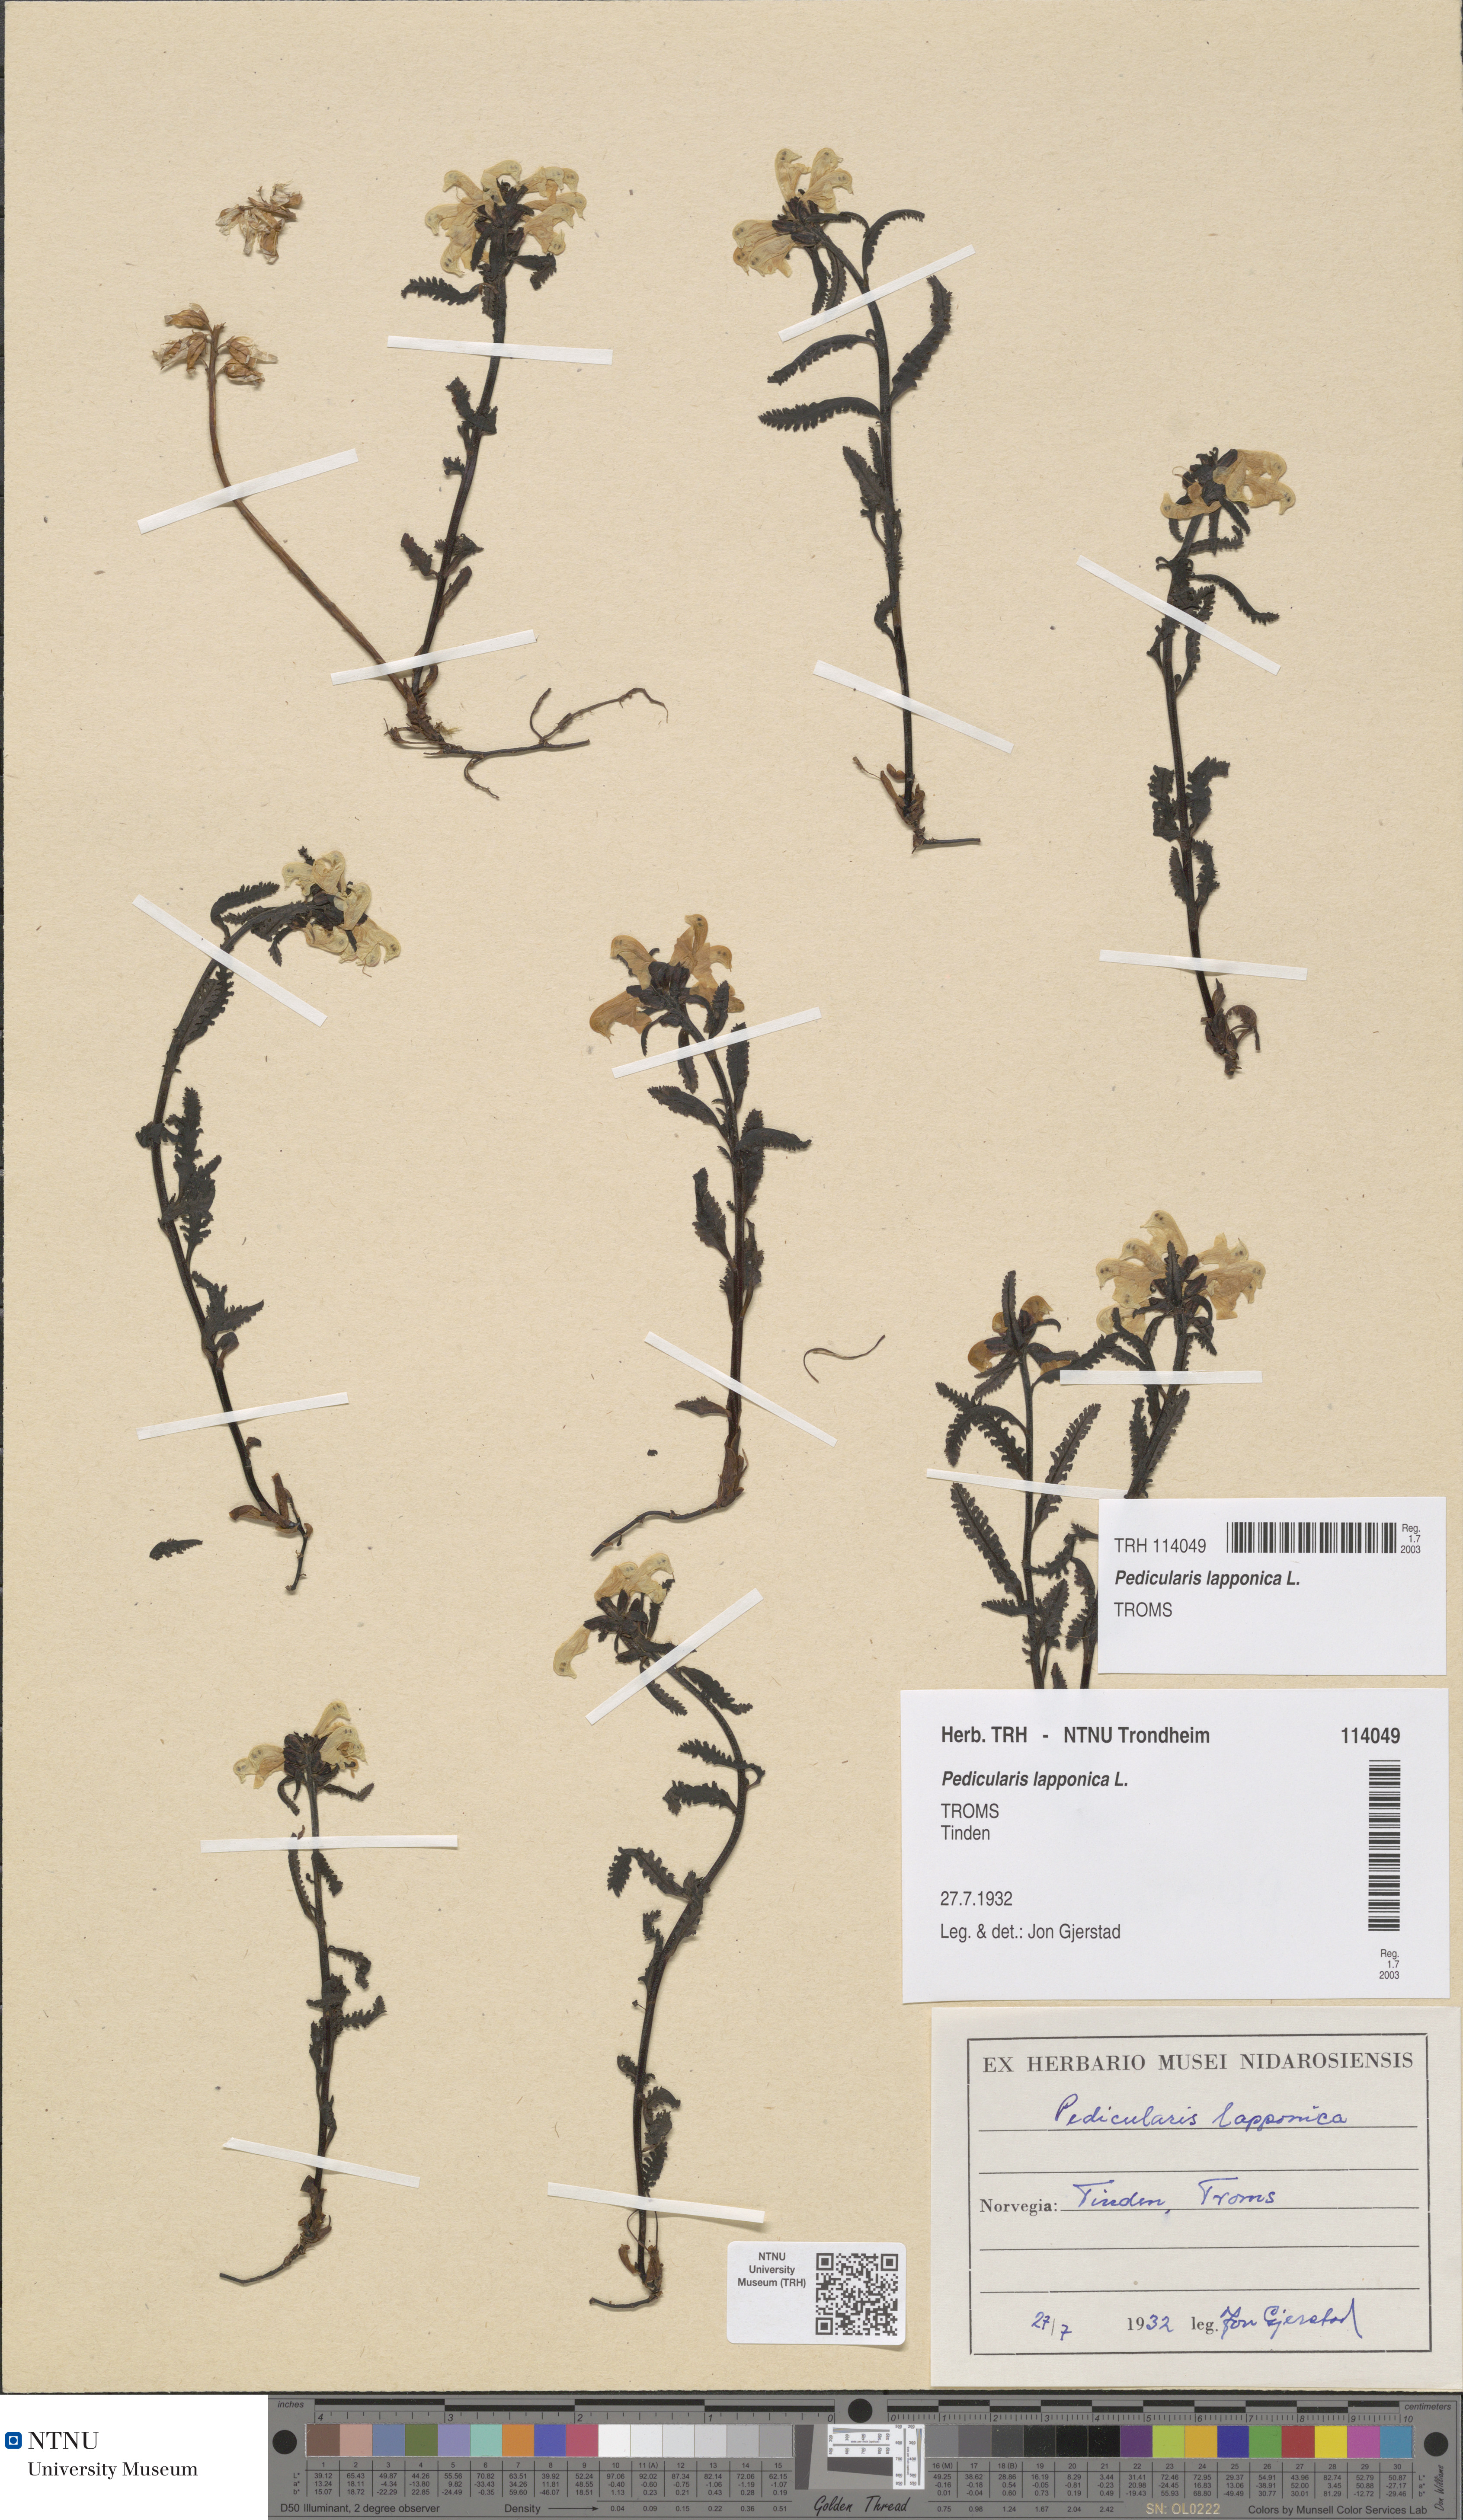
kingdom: Plantae
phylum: Tracheophyta
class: Magnoliopsida
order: Lamiales
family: Orobanchaceae
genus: Pedicularis
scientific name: Pedicularis lapponica
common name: Lapland lousewort
